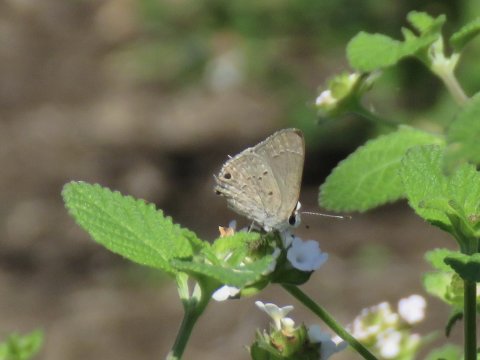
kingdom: Animalia
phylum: Arthropoda
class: Insecta
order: Lepidoptera
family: Lycaenidae
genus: Callicista
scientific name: Callicista columella
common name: Mallow Scrub-Hairstreak
